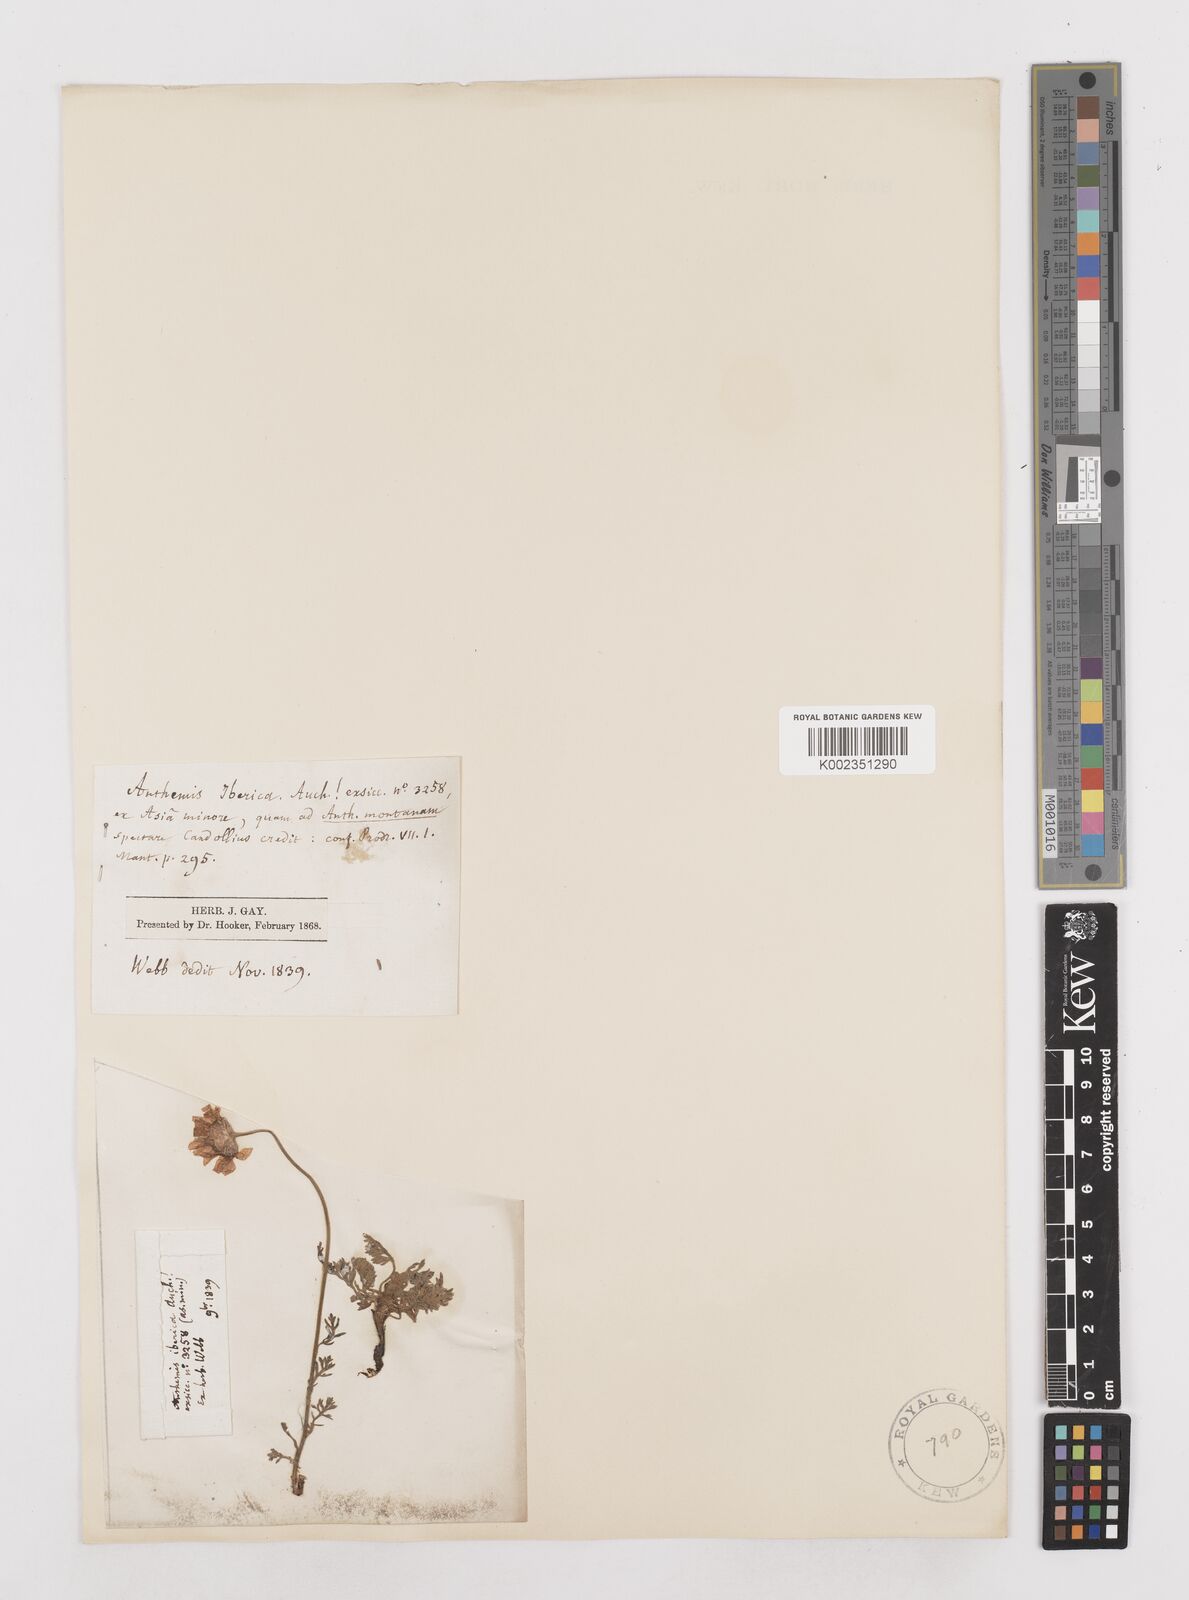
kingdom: Plantae
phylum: Tracheophyta
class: Magnoliopsida
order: Asterales
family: Asteraceae
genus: Anthemis
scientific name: Anthemis cretica
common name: Mountain dog-daisy
